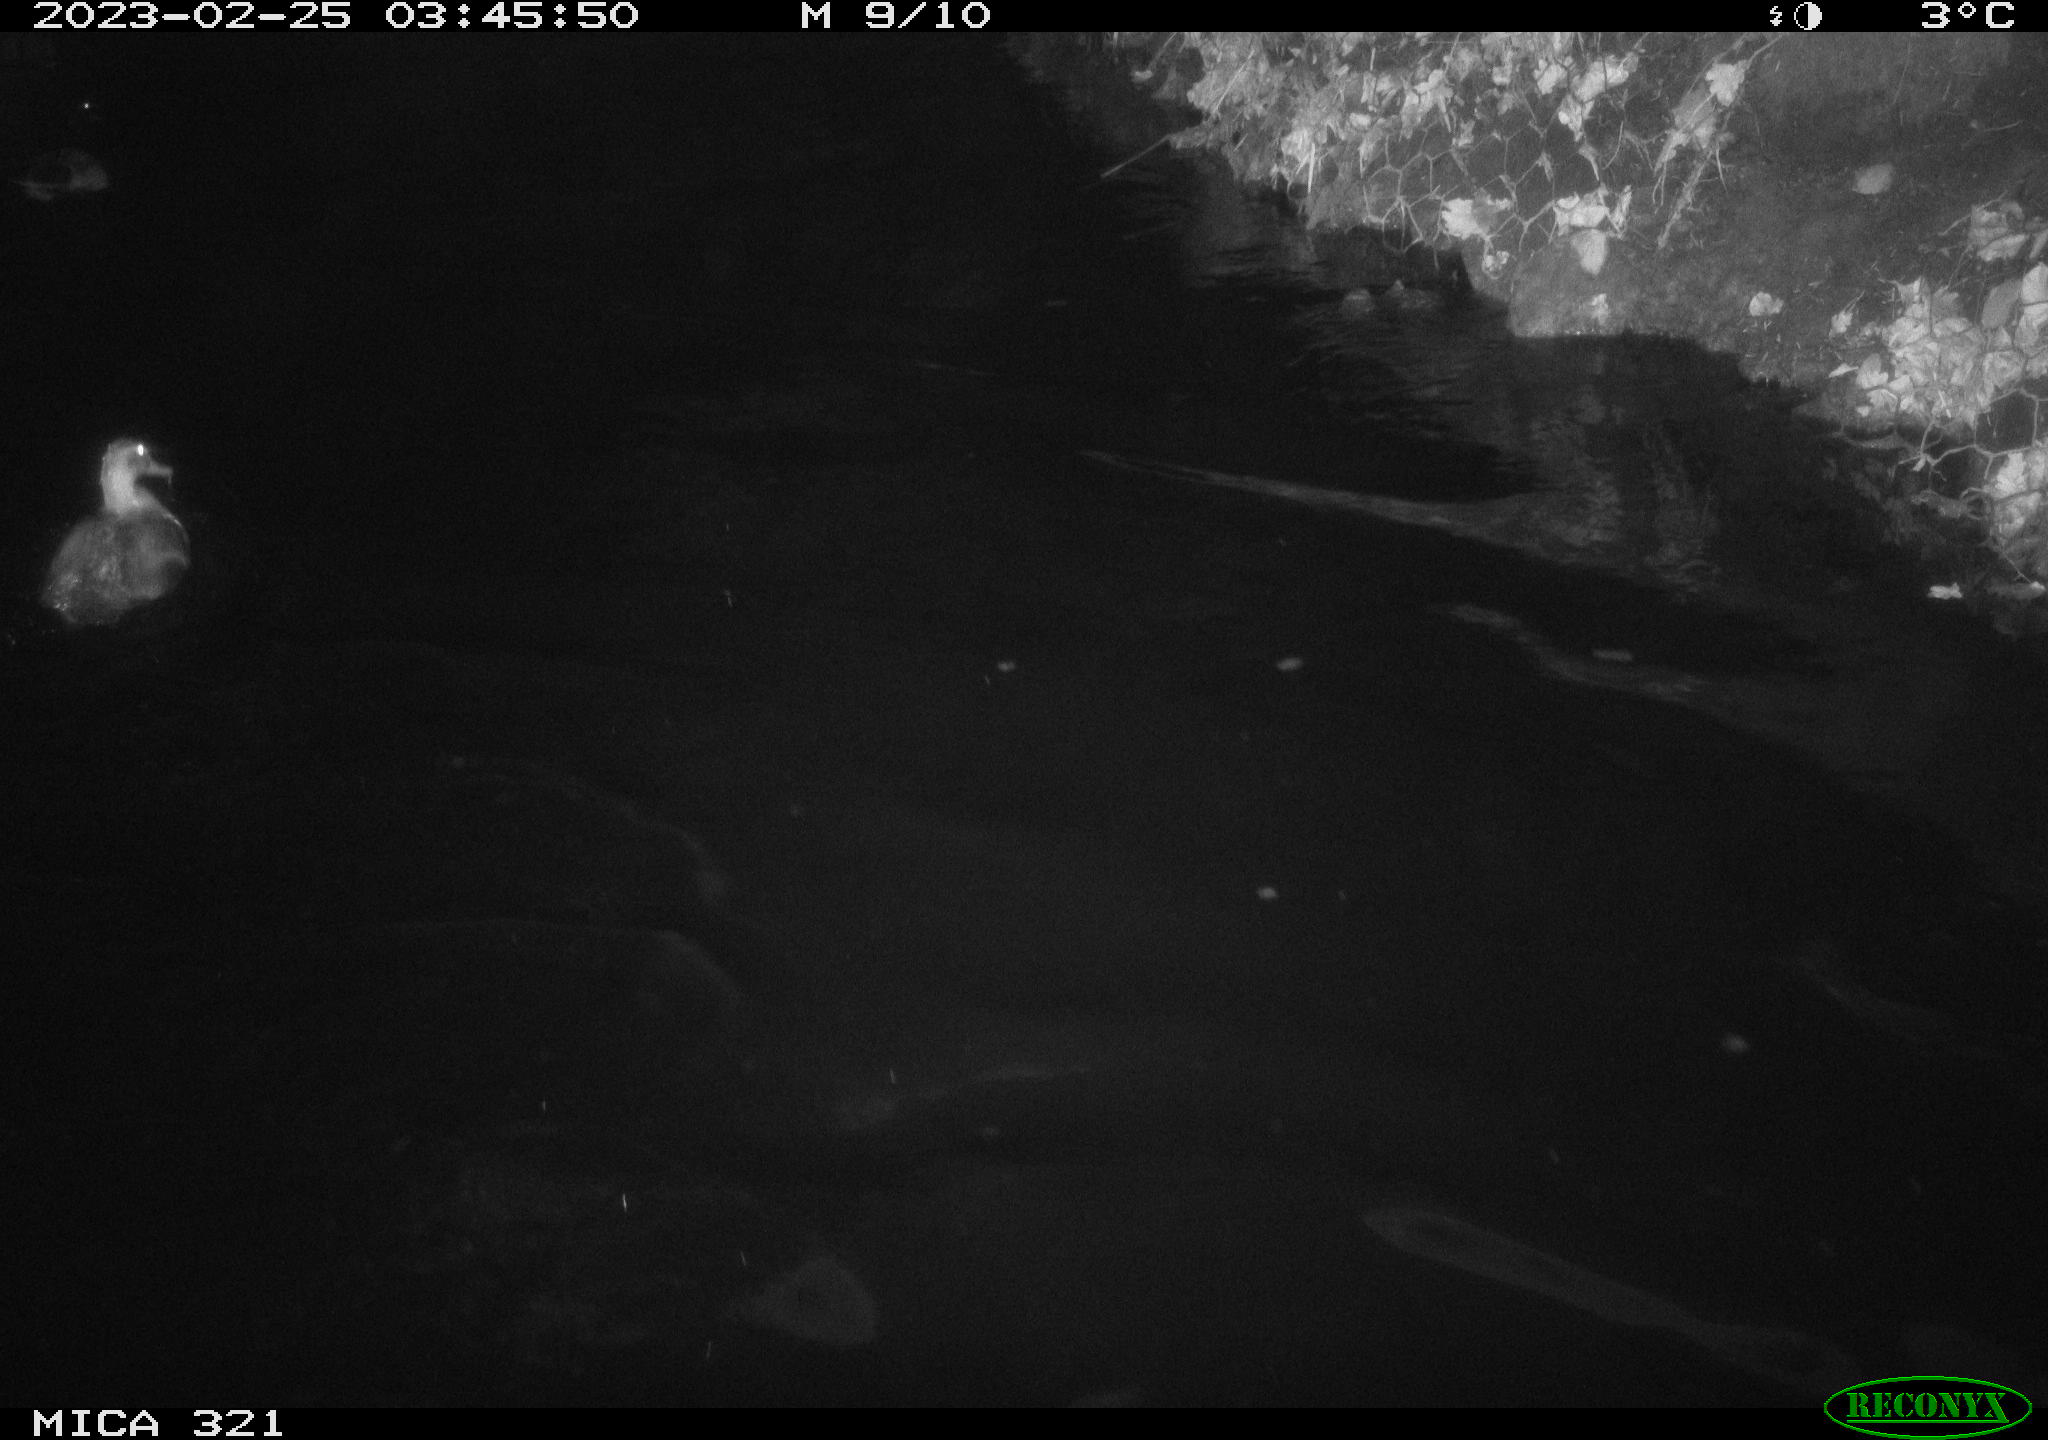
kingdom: Animalia
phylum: Chordata
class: Aves
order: Anseriformes
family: Anatidae
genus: Anas
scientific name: Anas
